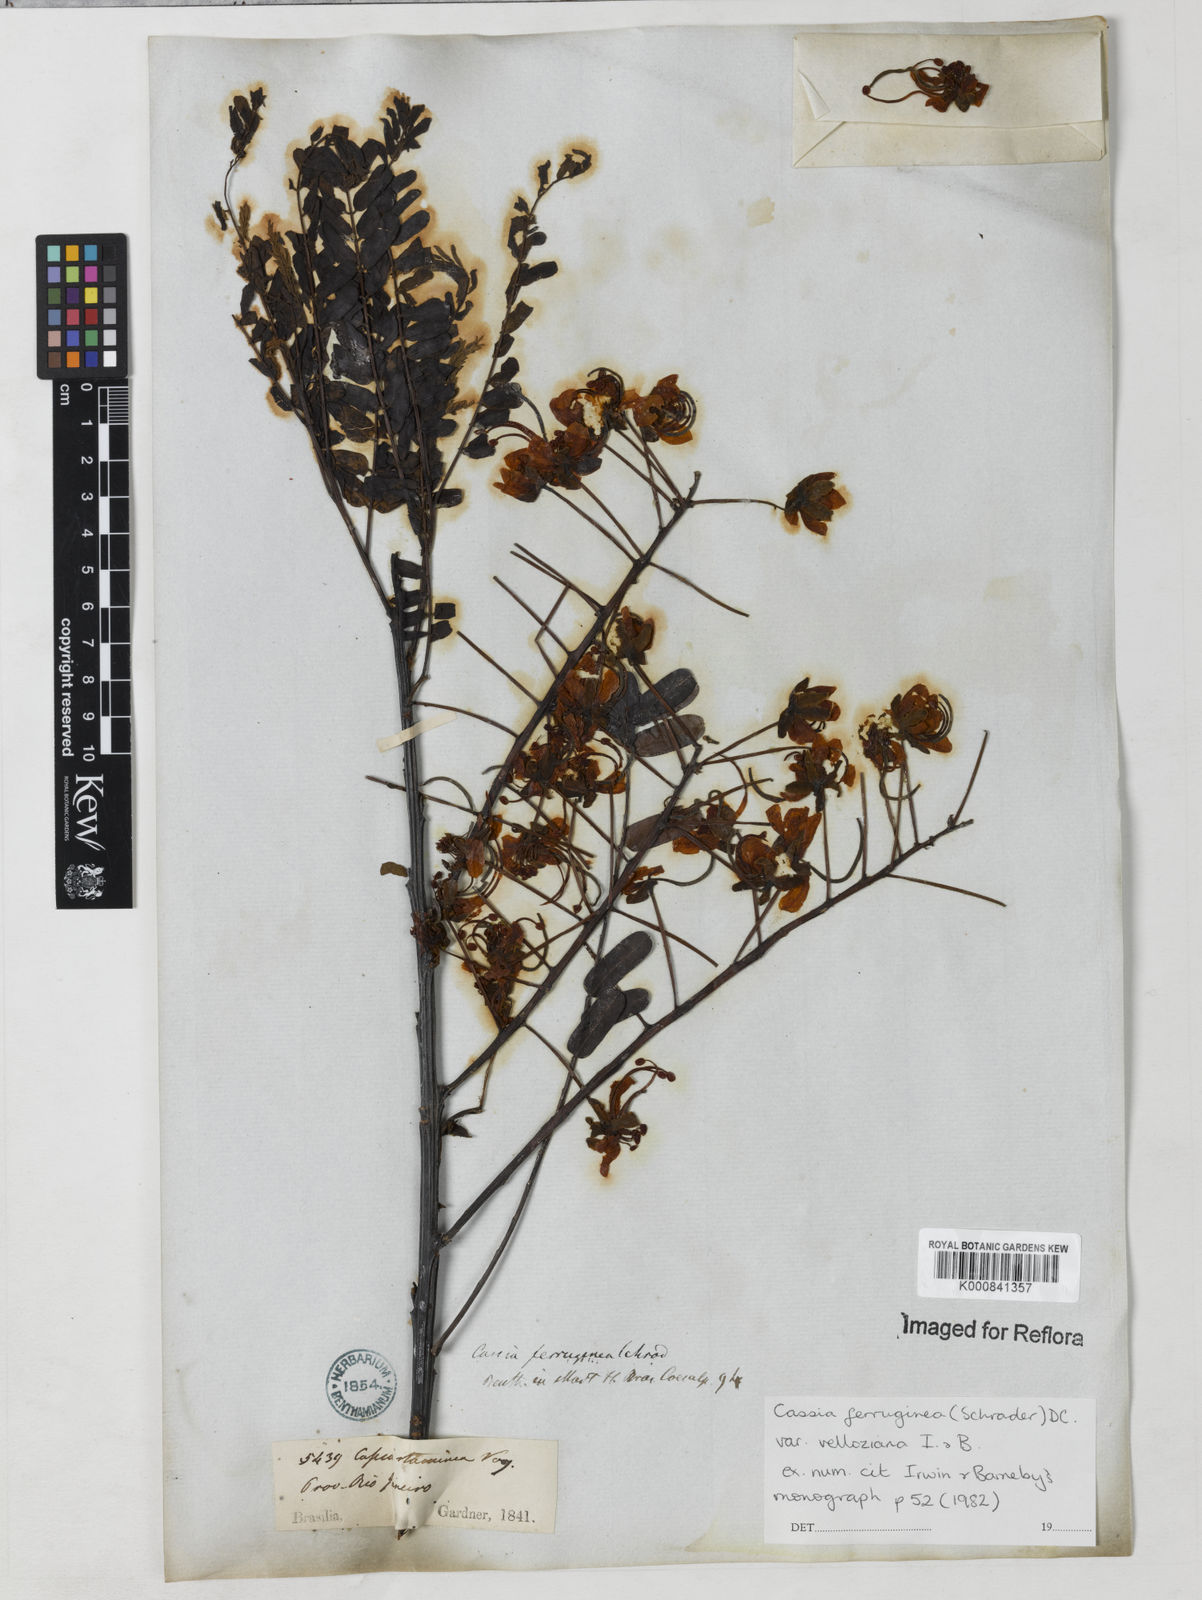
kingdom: Plantae
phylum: Tracheophyta
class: Magnoliopsida
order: Fabales
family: Fabaceae
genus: Cassia
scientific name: Cassia ferruginea
